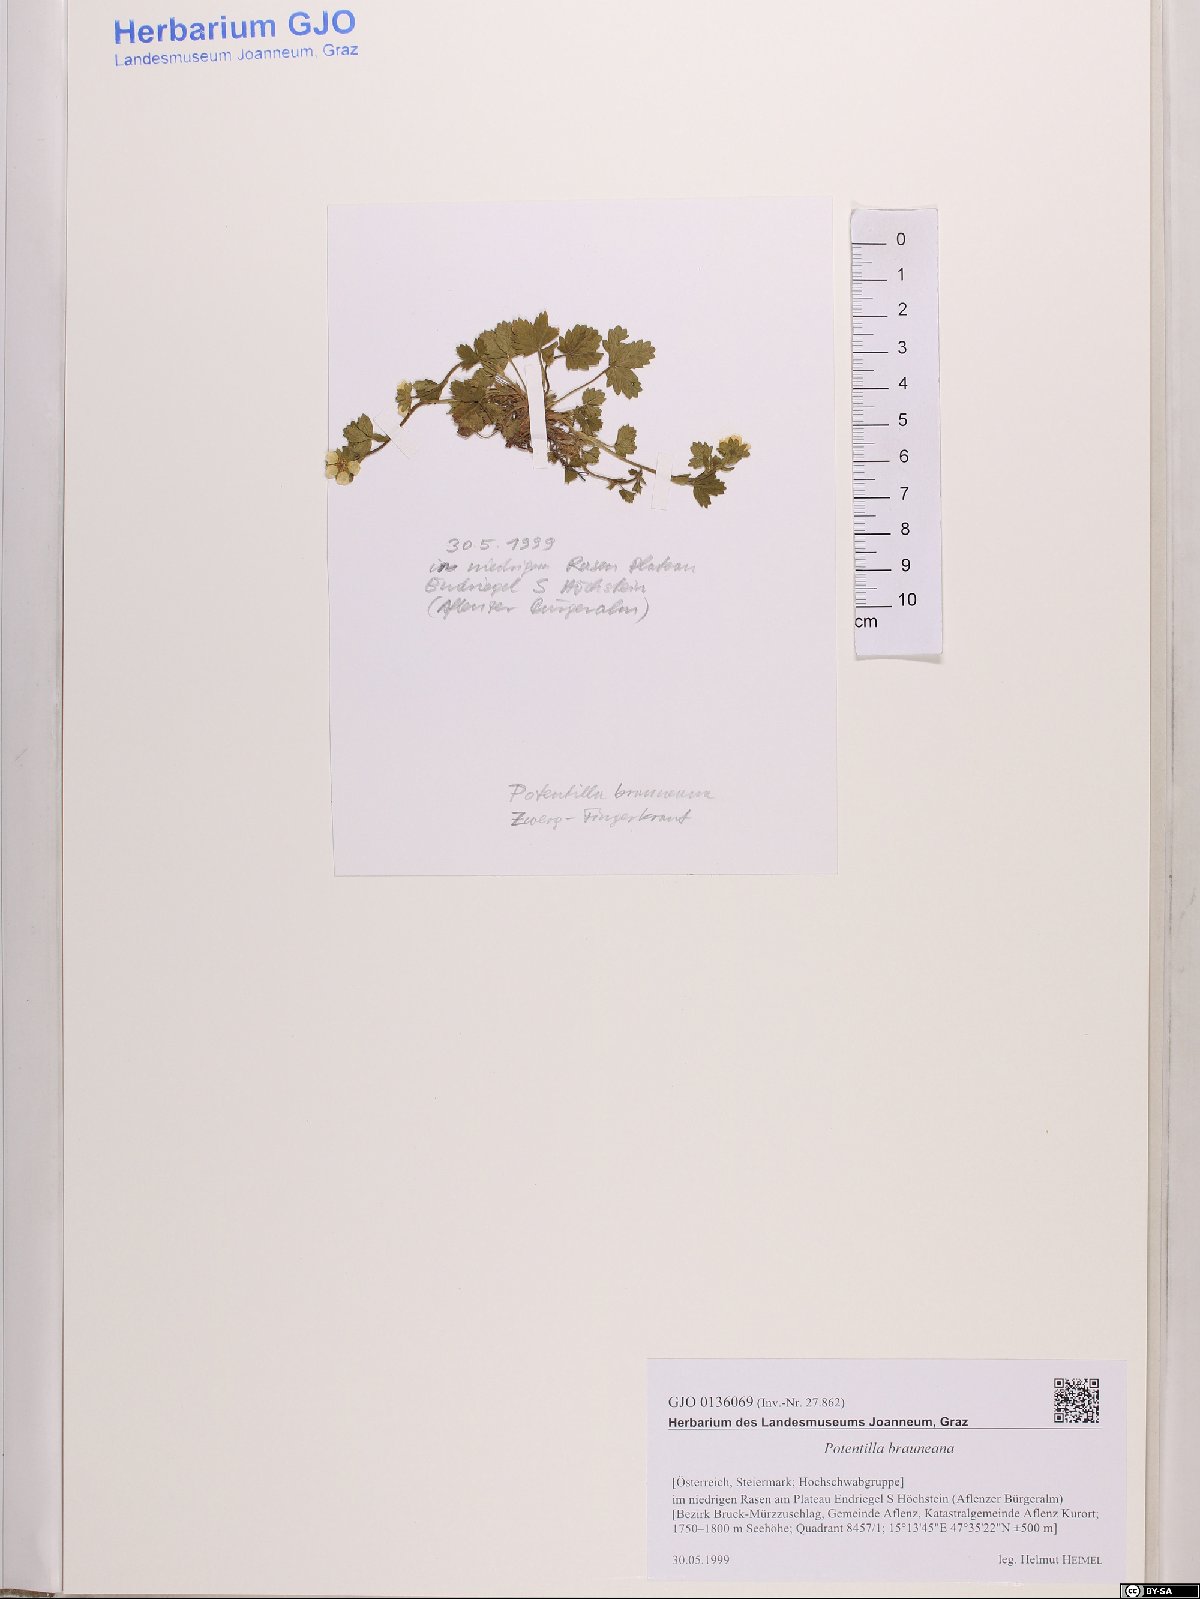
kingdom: Plantae
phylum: Tracheophyta
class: Magnoliopsida
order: Rosales
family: Rosaceae
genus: Potentilla
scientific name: Potentilla brauneana
